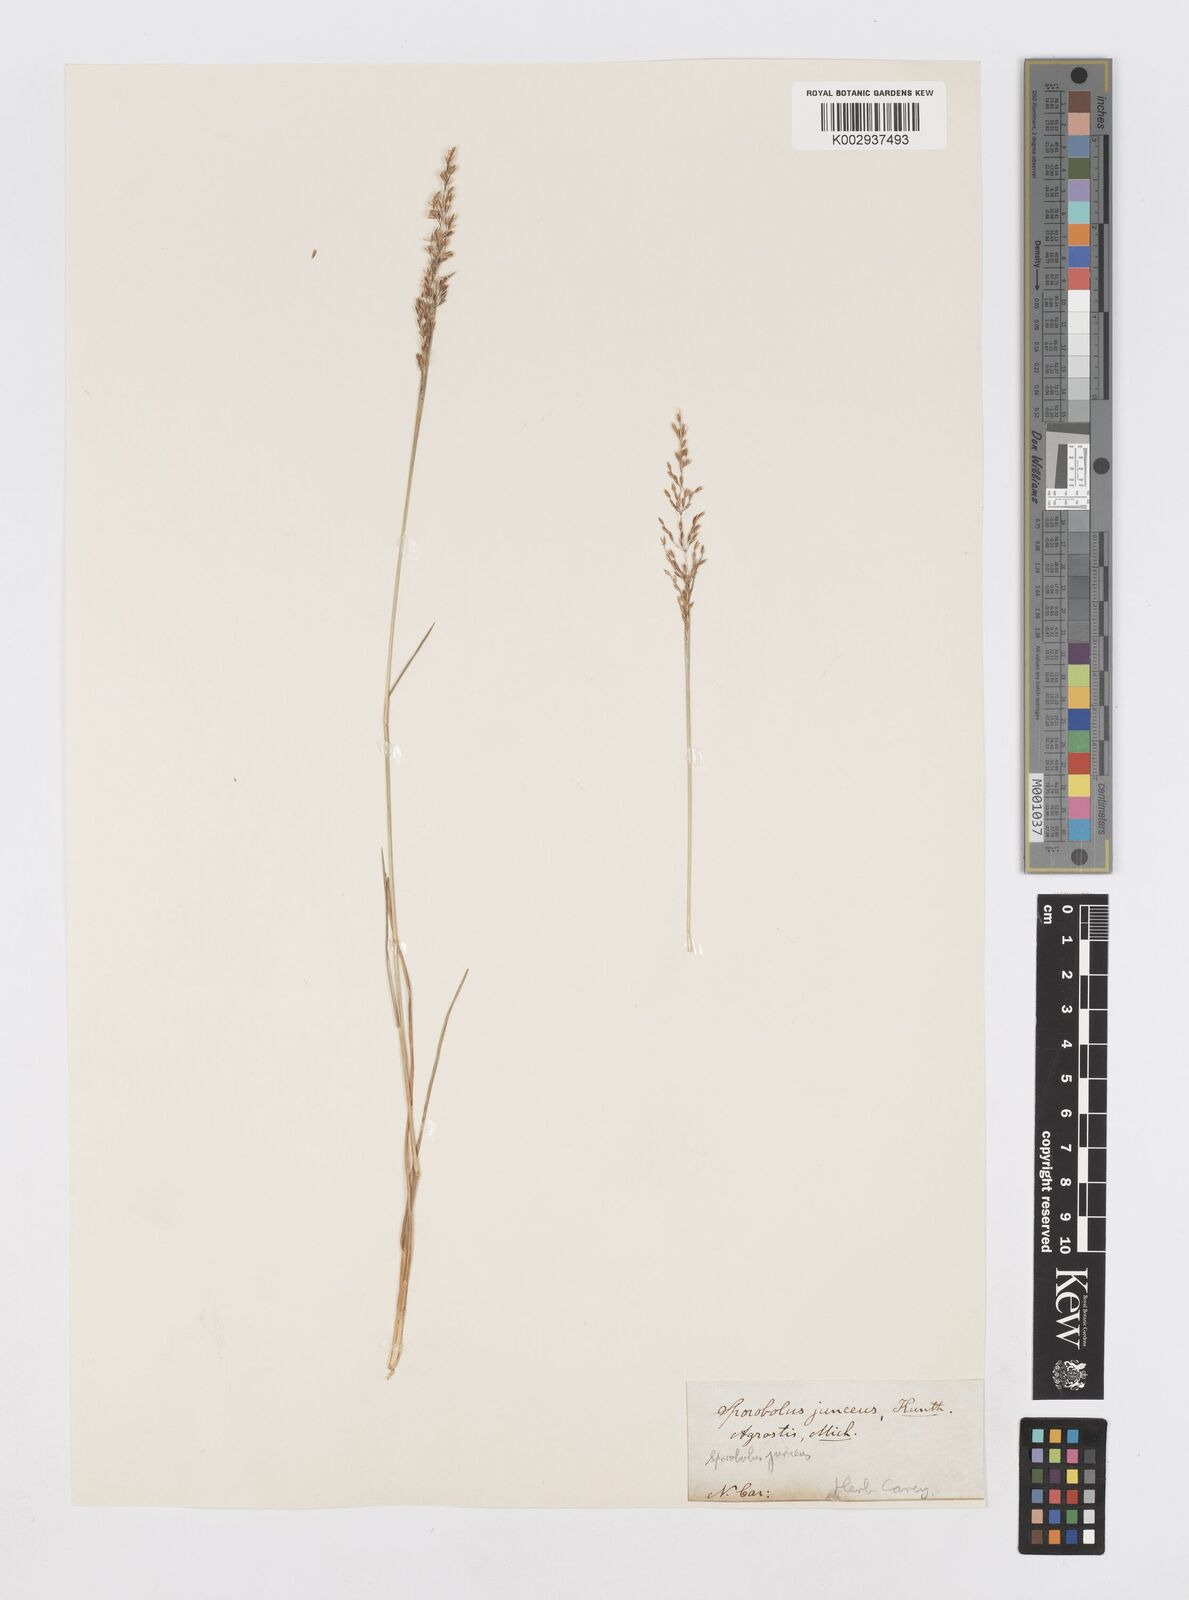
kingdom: Plantae
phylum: Tracheophyta
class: Liliopsida
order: Poales
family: Poaceae
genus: Sporobolus
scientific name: Sporobolus junceus
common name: Lizard grass
